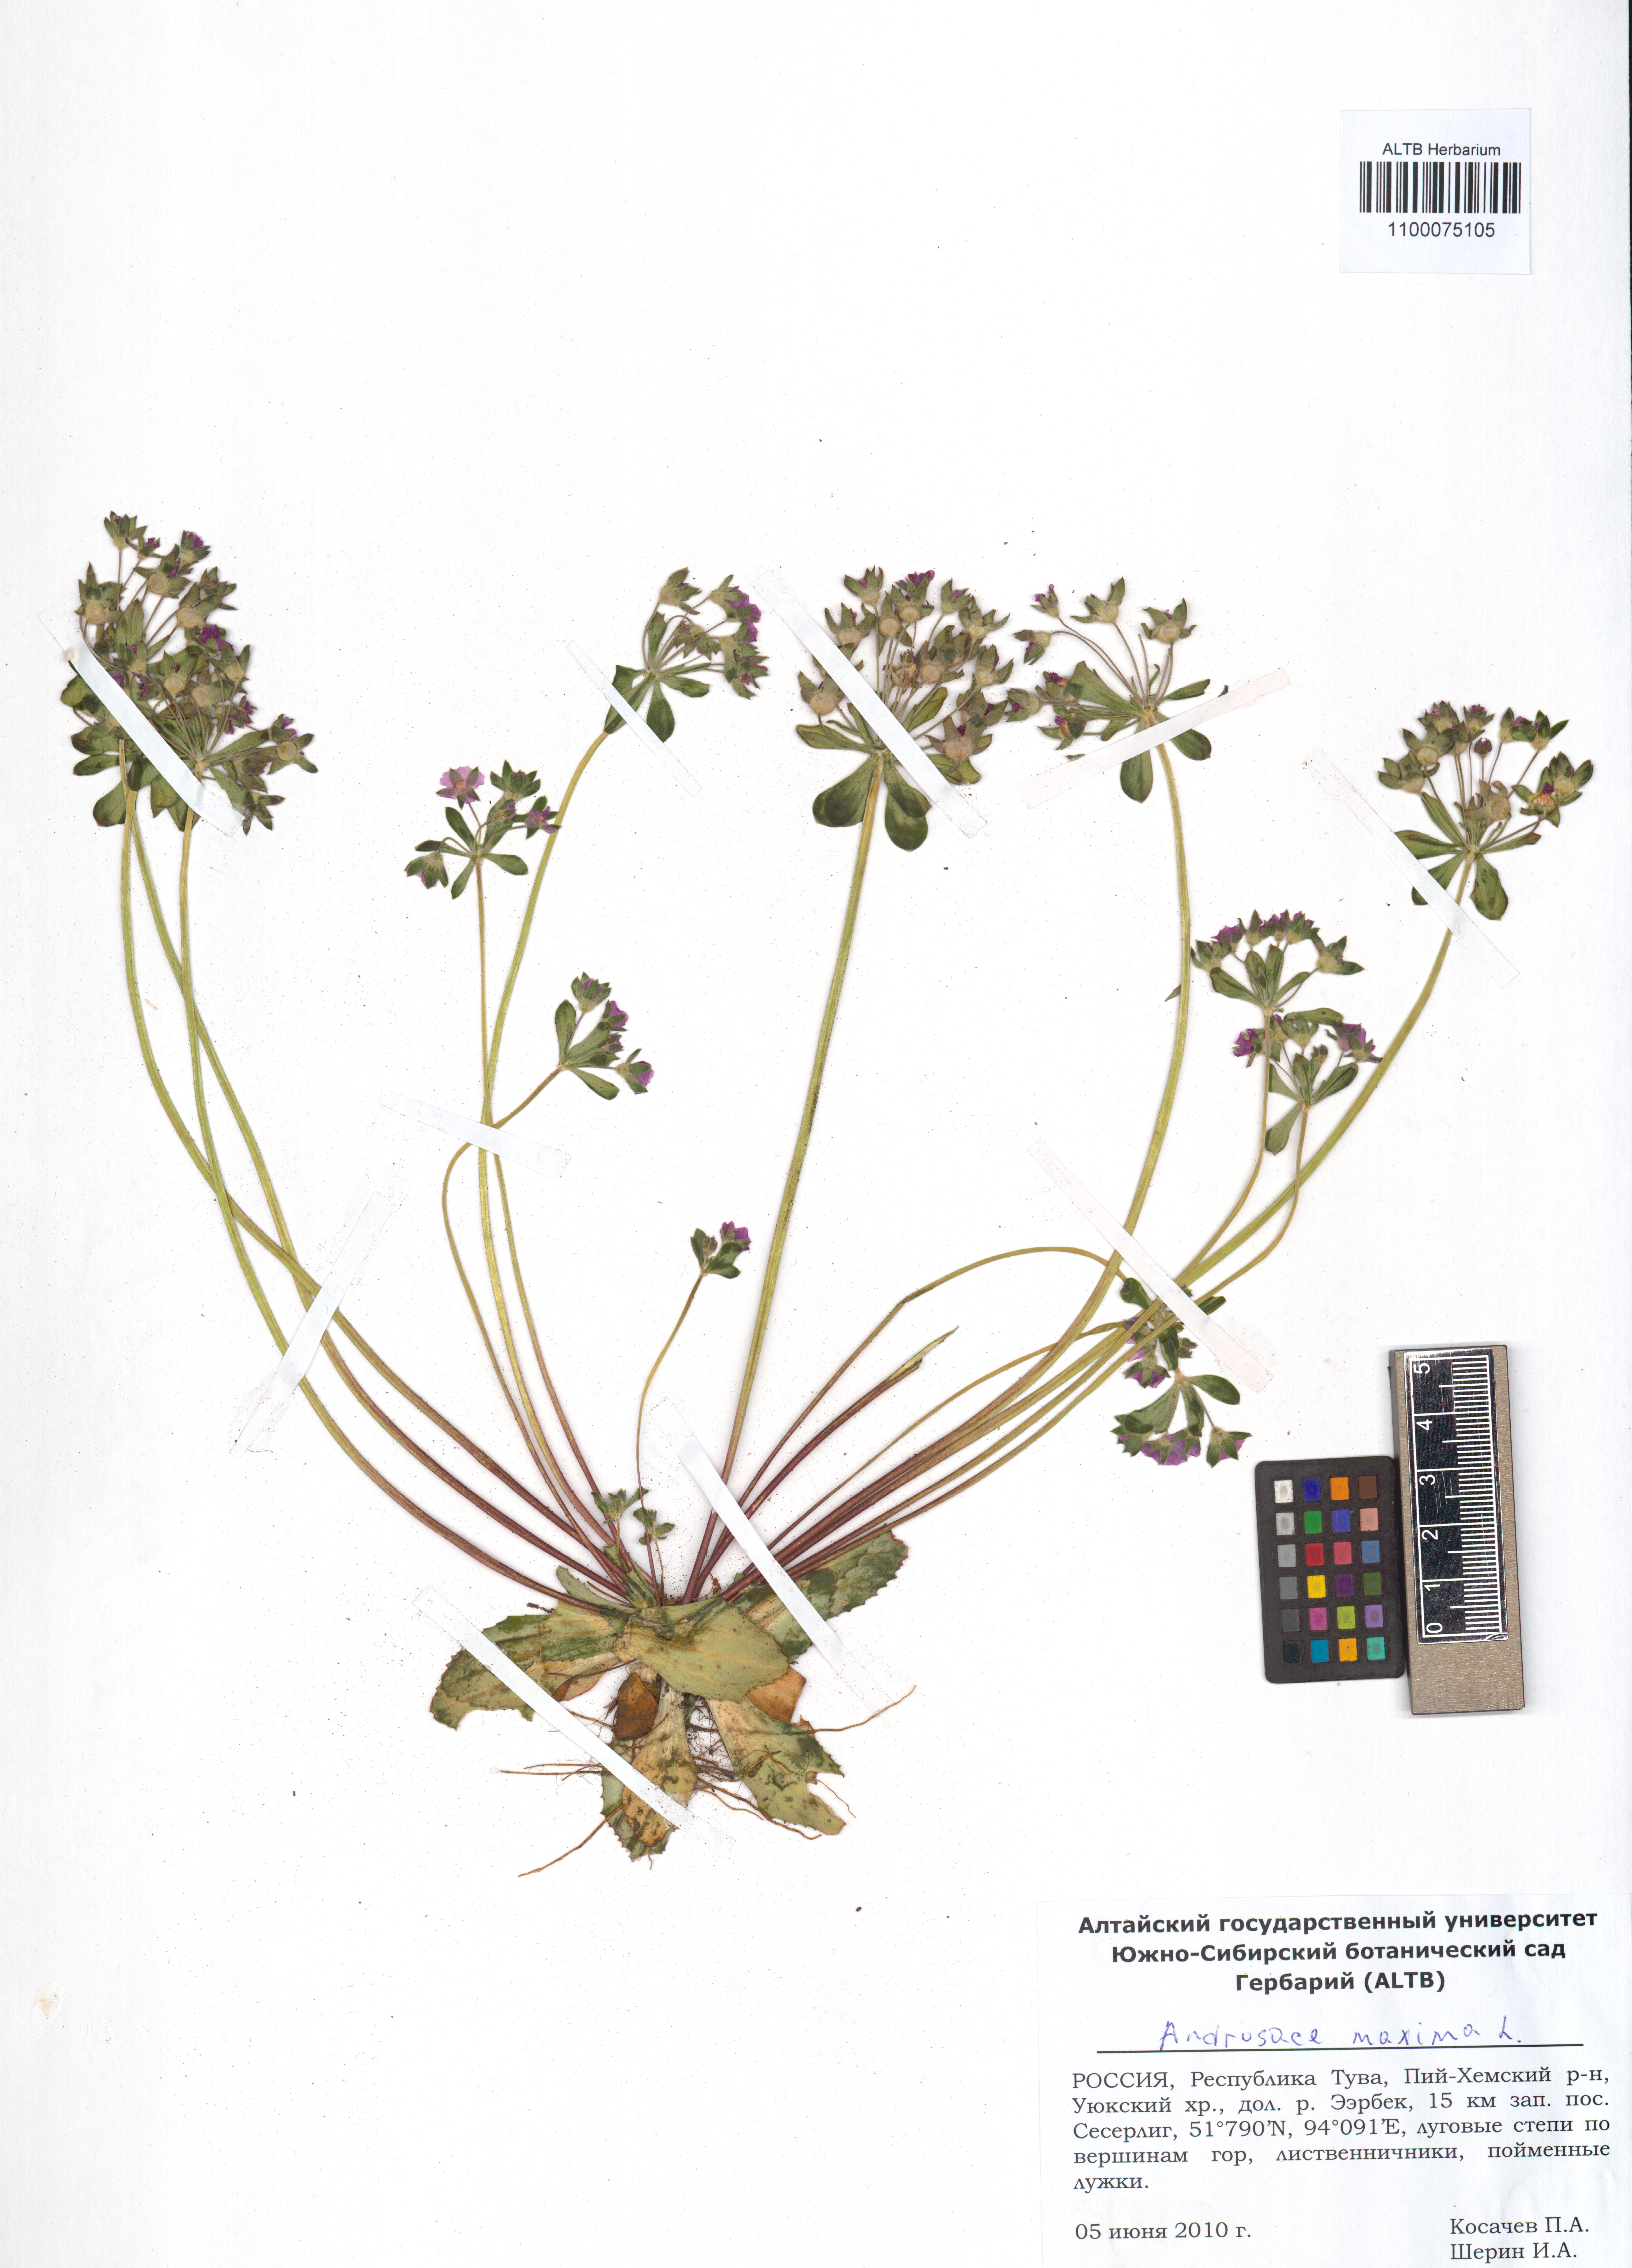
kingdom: Plantae
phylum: Tracheophyta
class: Magnoliopsida
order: Ericales
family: Primulaceae
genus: Androsace
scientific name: Androsace maxima
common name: Annual androsace
